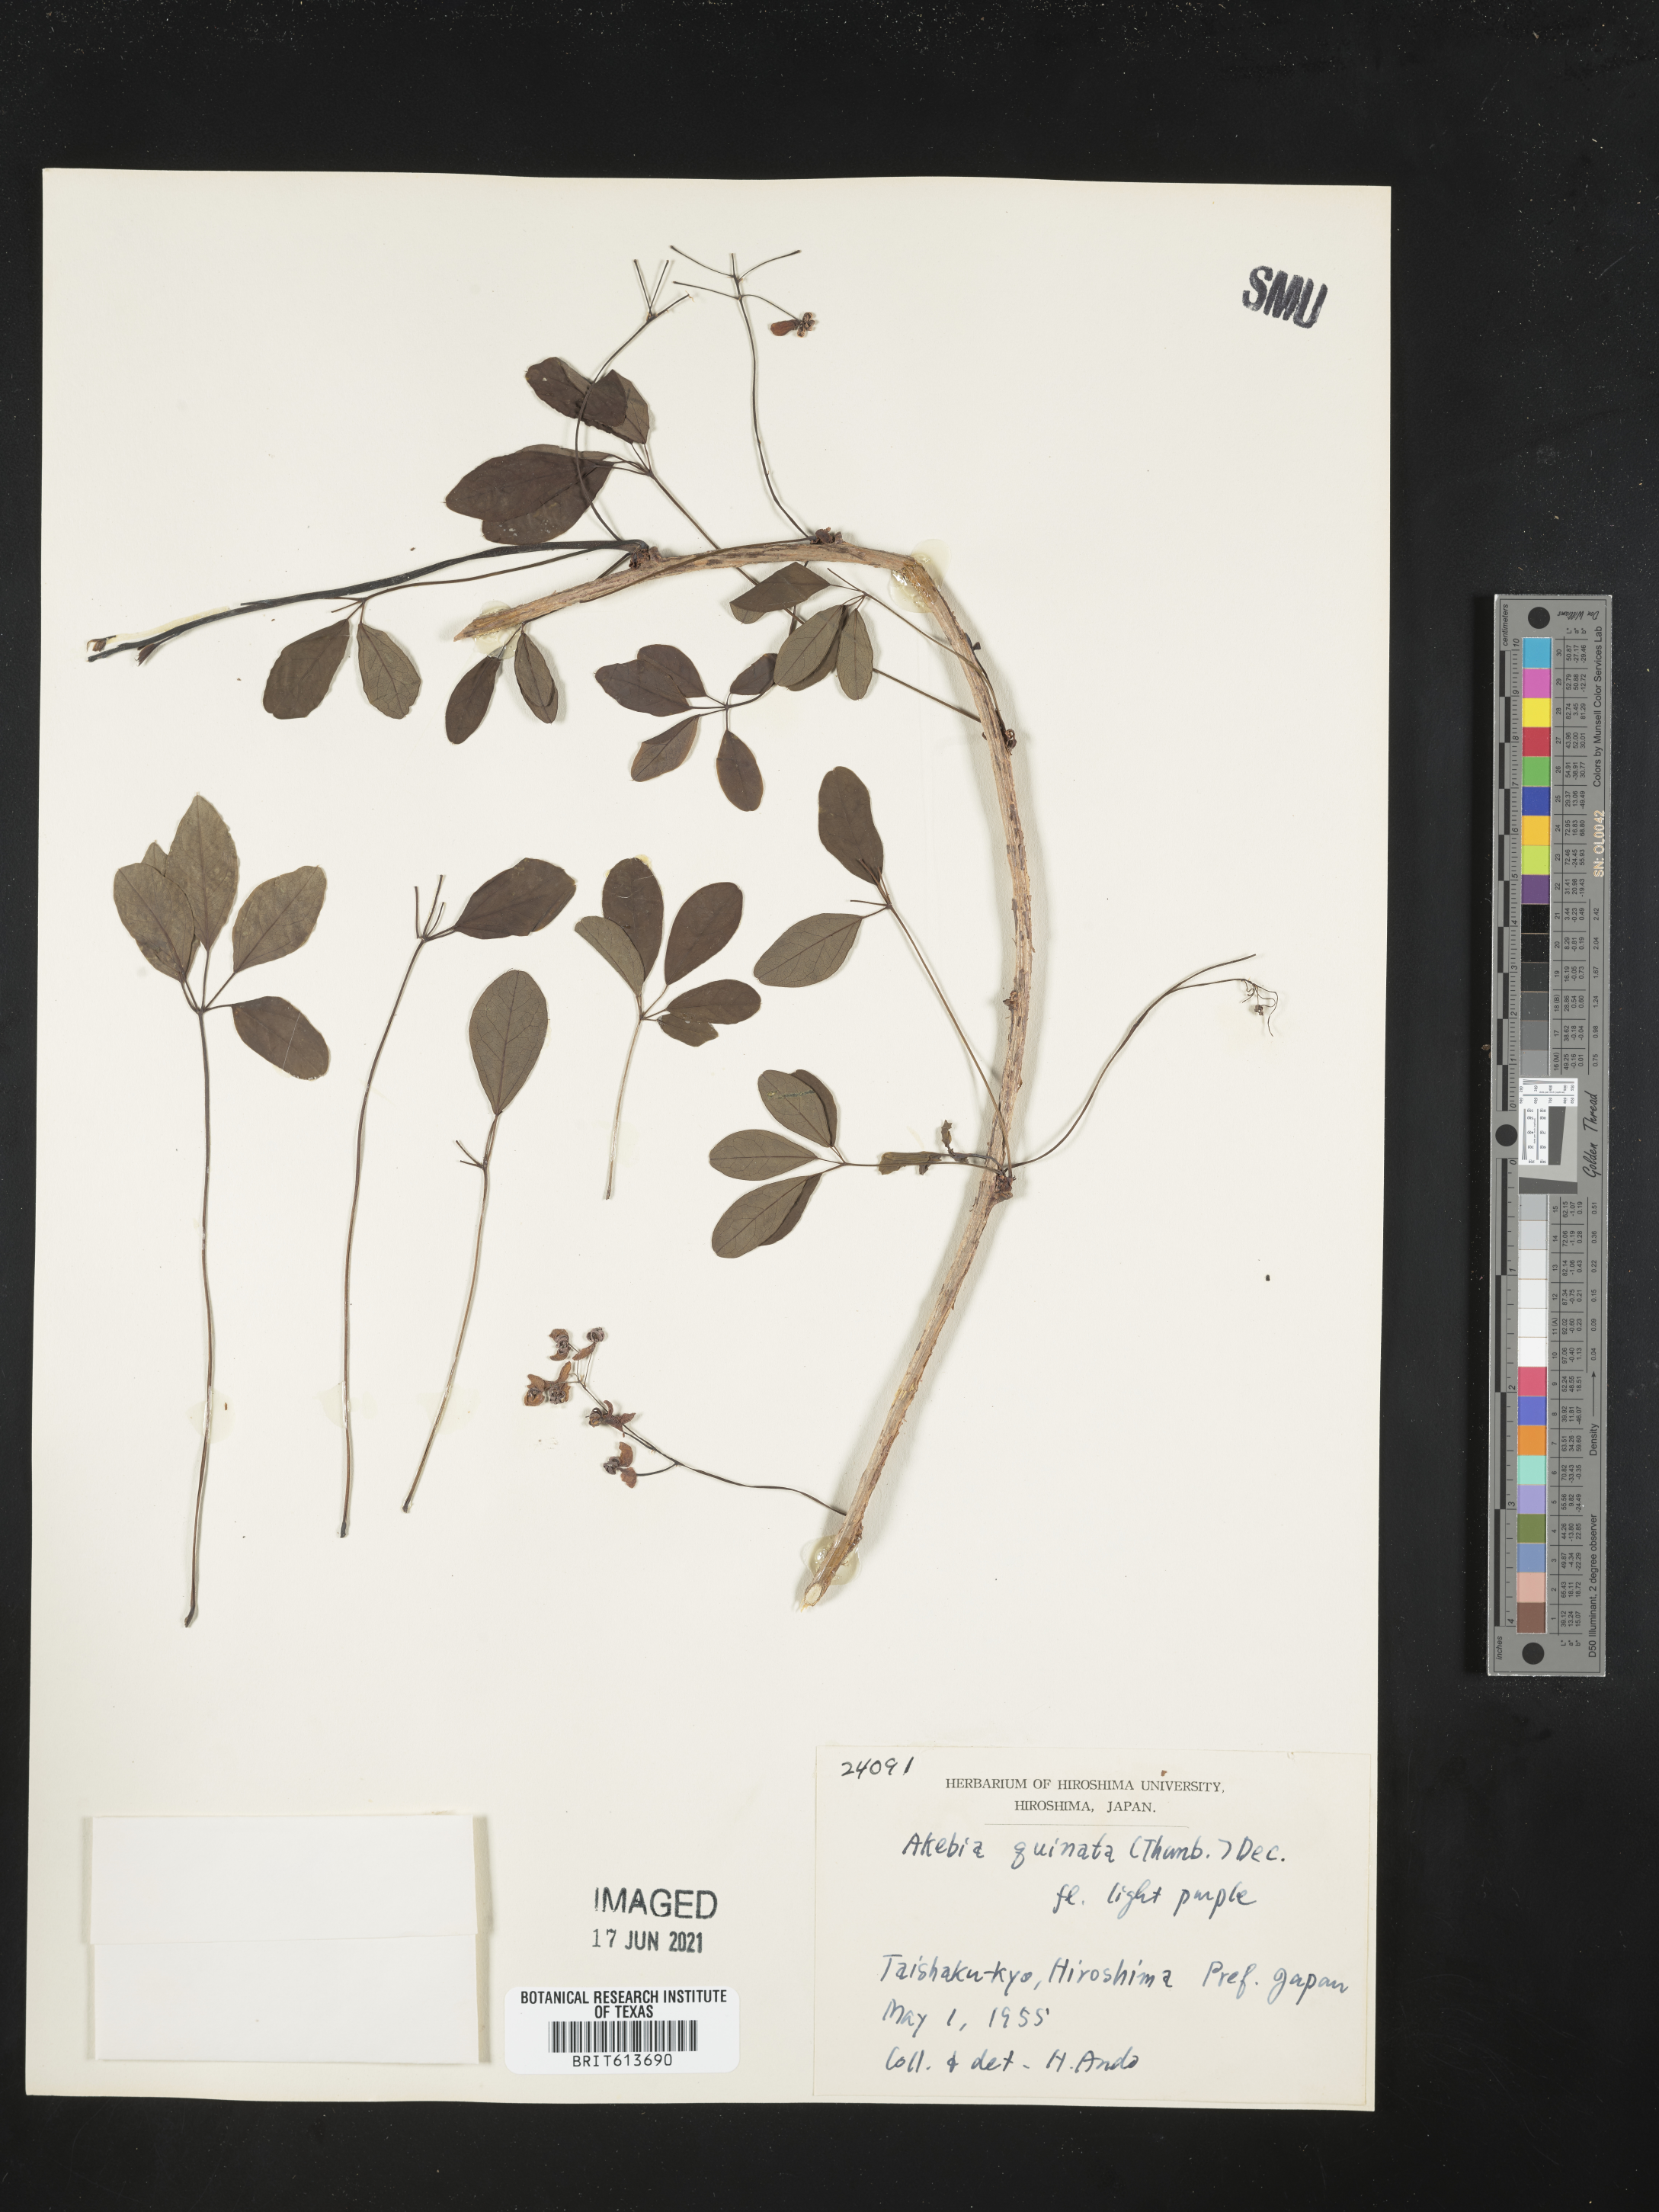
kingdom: Plantae
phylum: Tracheophyta
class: Magnoliopsida
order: Ranunculales
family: Lardizabalaceae
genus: Akebia
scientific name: Akebia quinata
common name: Five-leaf akebia
